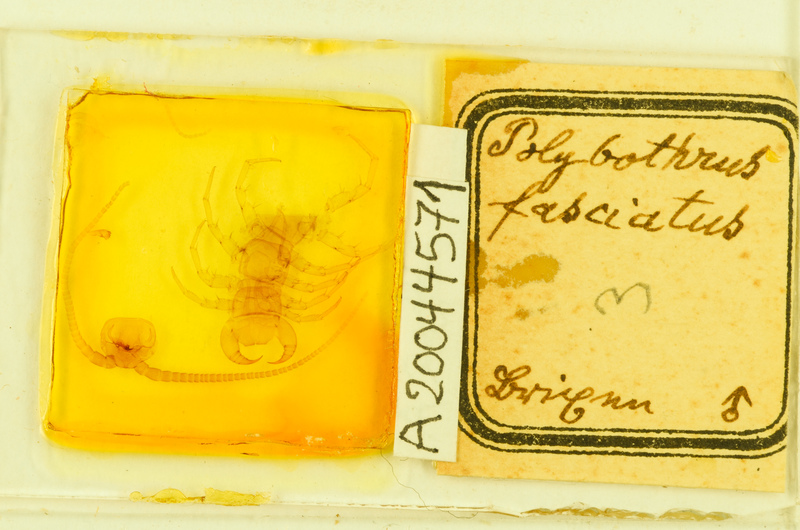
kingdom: Animalia
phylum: Arthropoda
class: Chilopoda
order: Lithobiomorpha
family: Lithobiidae
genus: Polybothrus
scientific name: Polybothrus fasciatus
